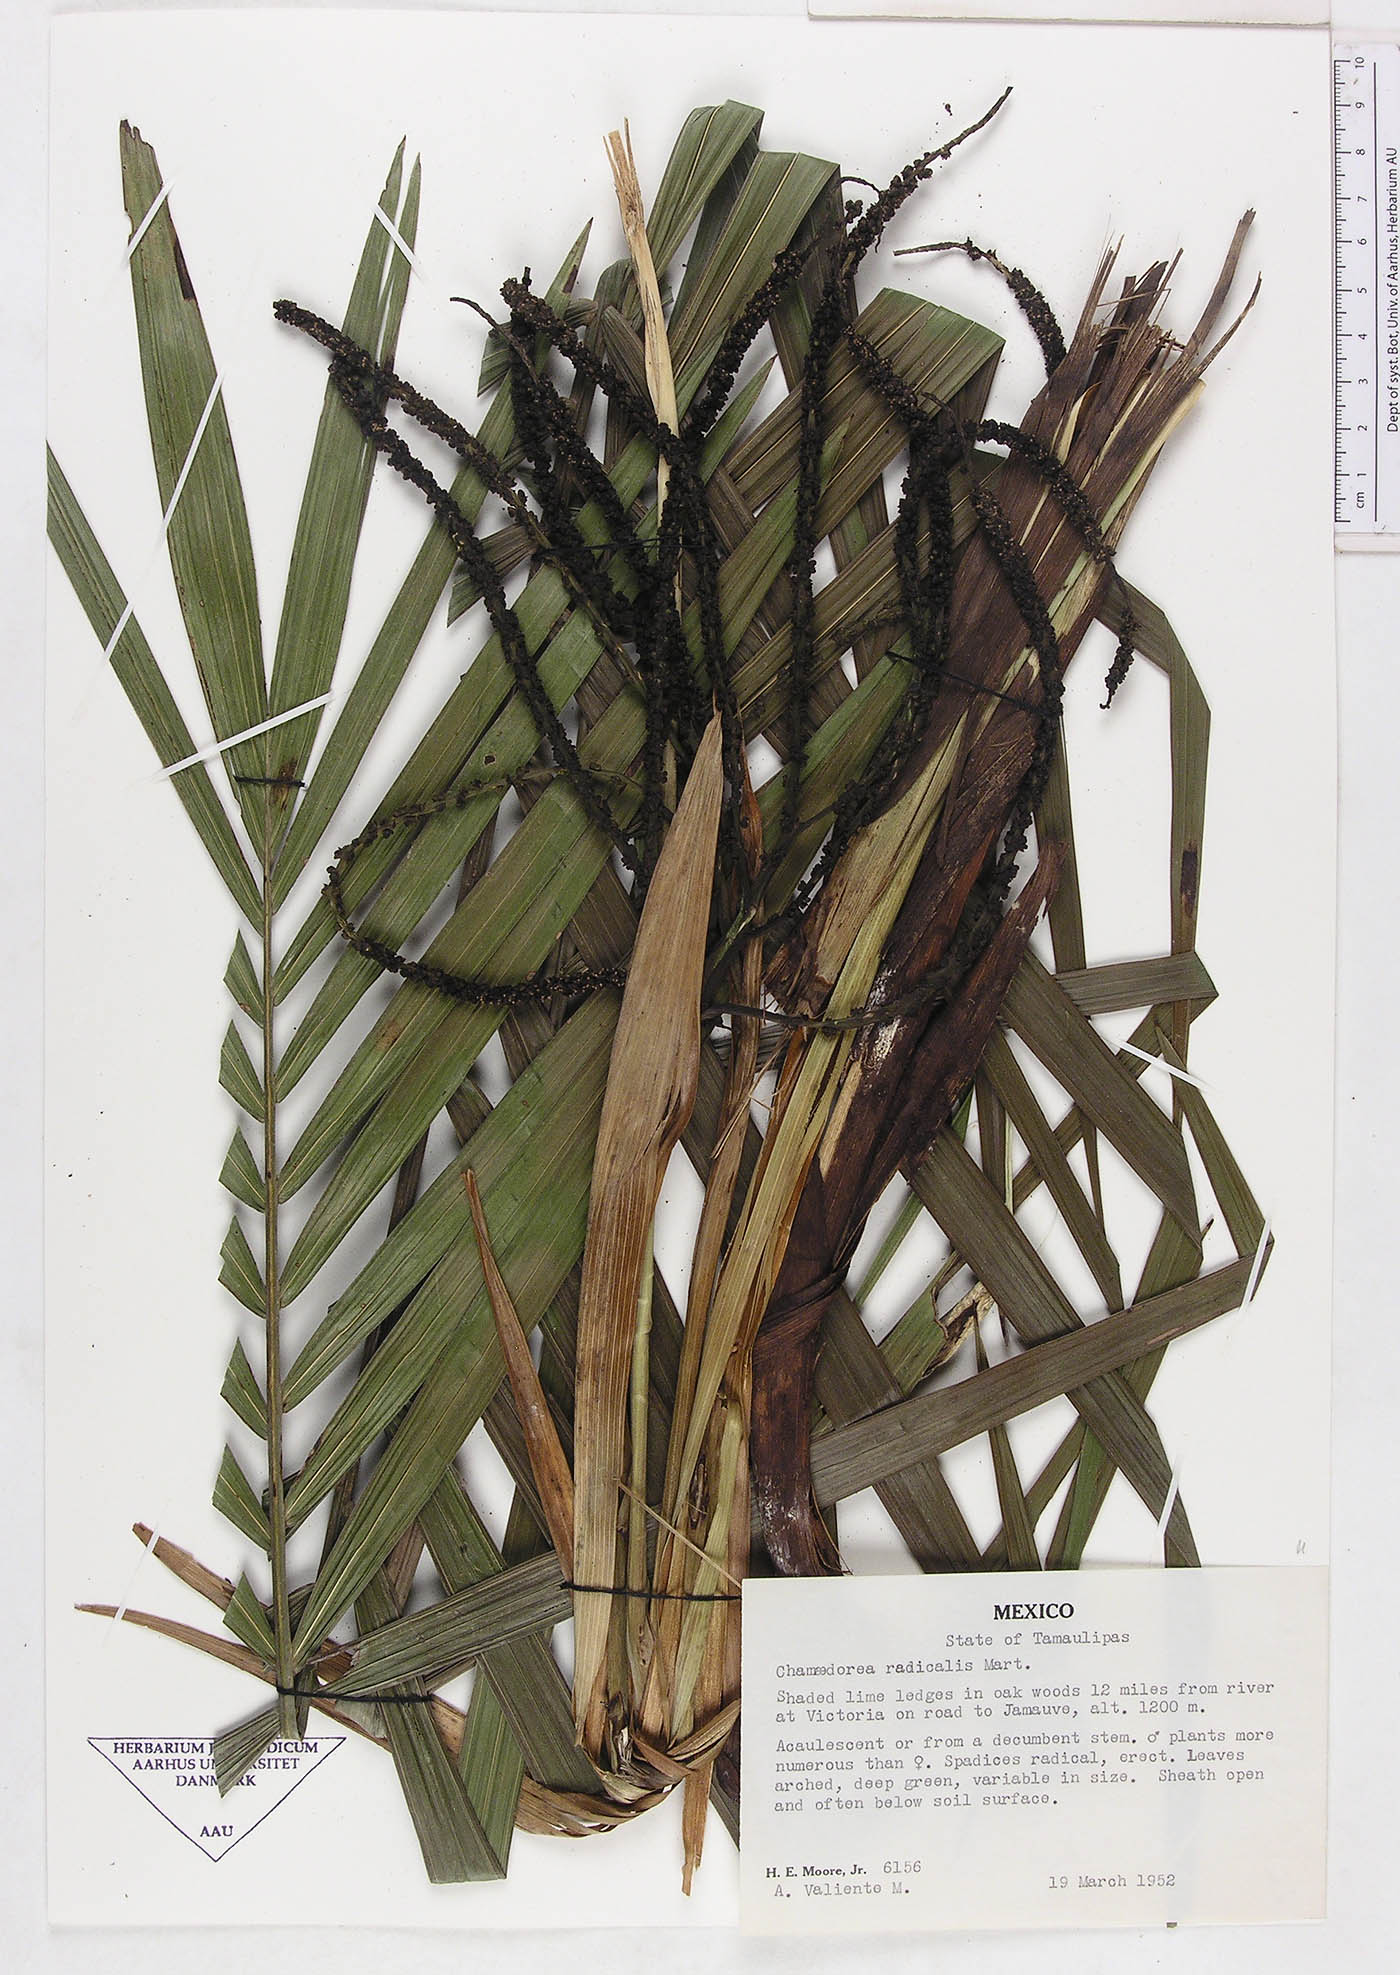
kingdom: Plantae
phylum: Tracheophyta
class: Liliopsida
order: Arecales
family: Arecaceae
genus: Chamaedorea
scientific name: Chamaedorea radicalis
